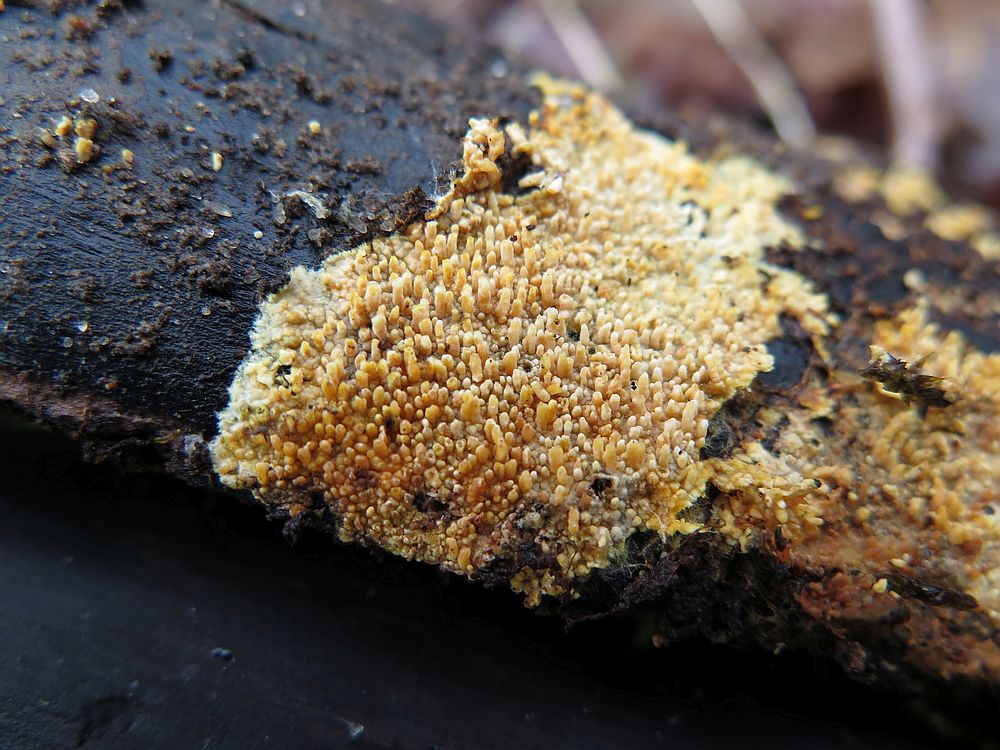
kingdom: Fungi
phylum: Basidiomycota
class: Agaricomycetes
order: Hymenochaetales
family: Schizoporaceae
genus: Xylodon
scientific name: Xylodon radula
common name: grovtandet kalkskind
